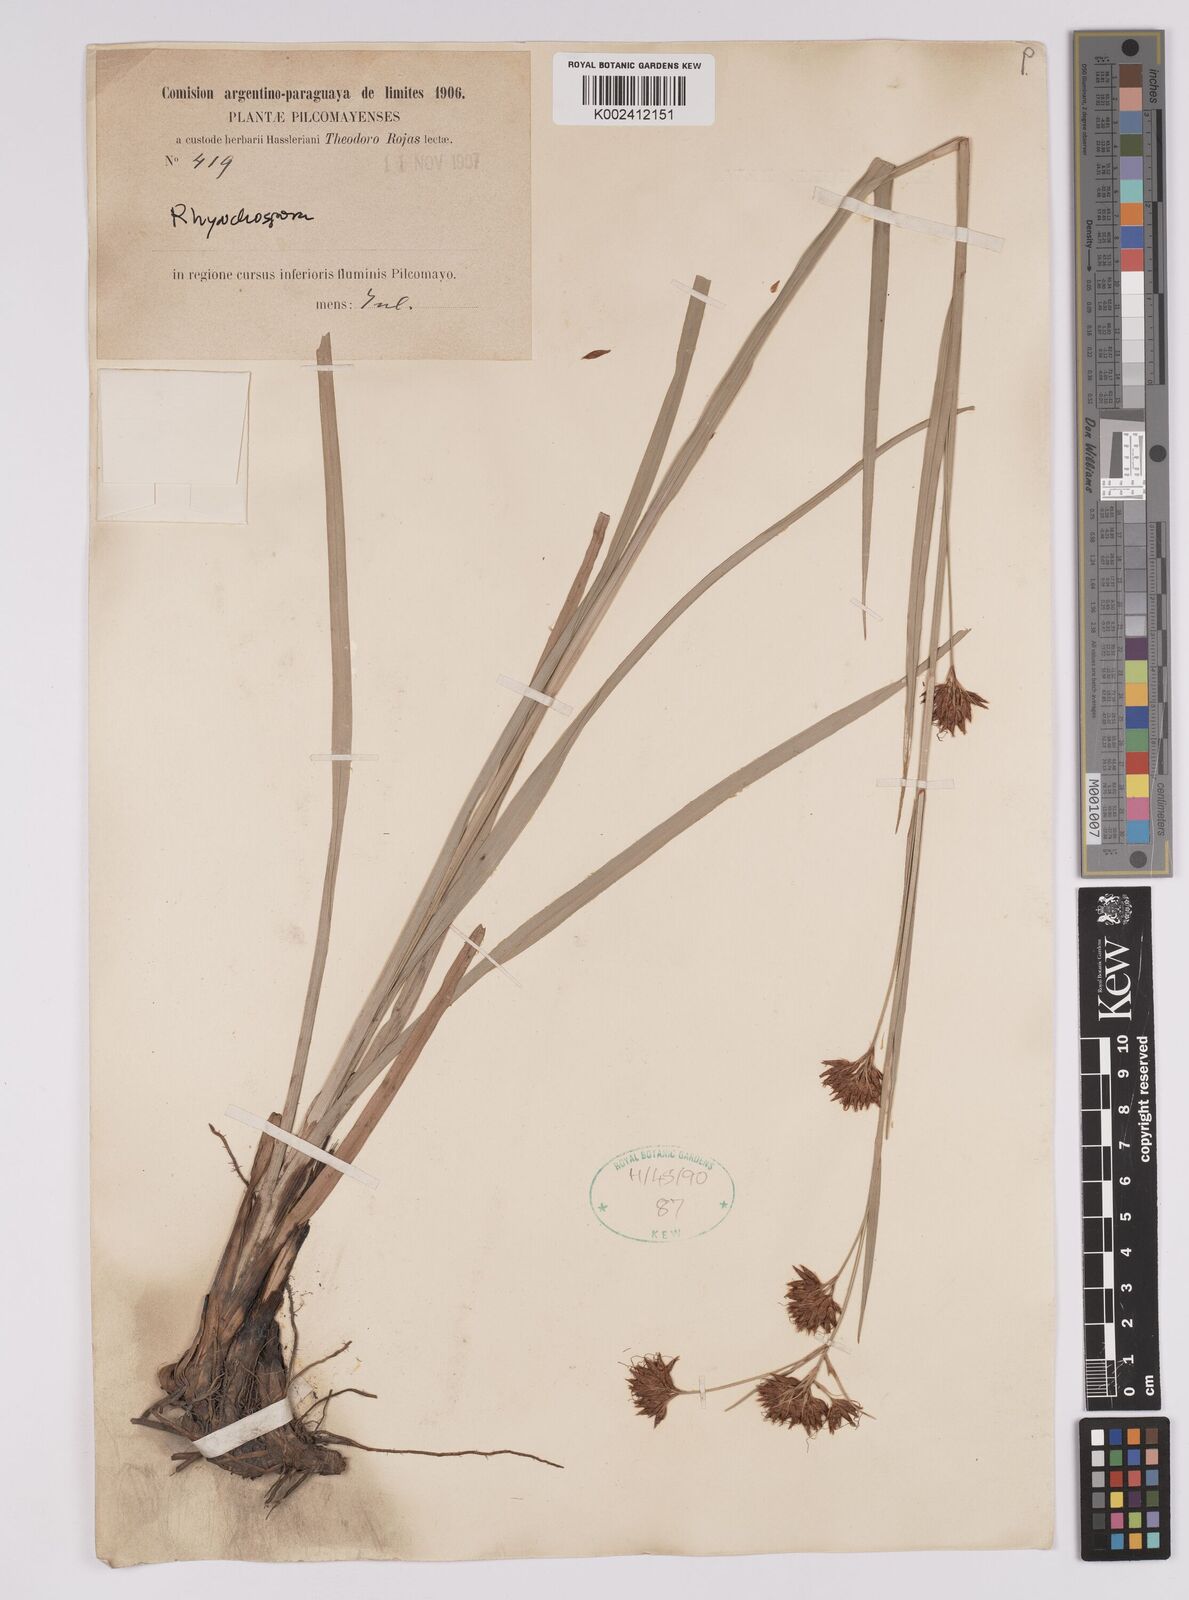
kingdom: Plantae
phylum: Tracheophyta
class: Liliopsida
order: Poales
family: Cyperaceae
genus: Rhynchospora
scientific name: Rhynchospora
